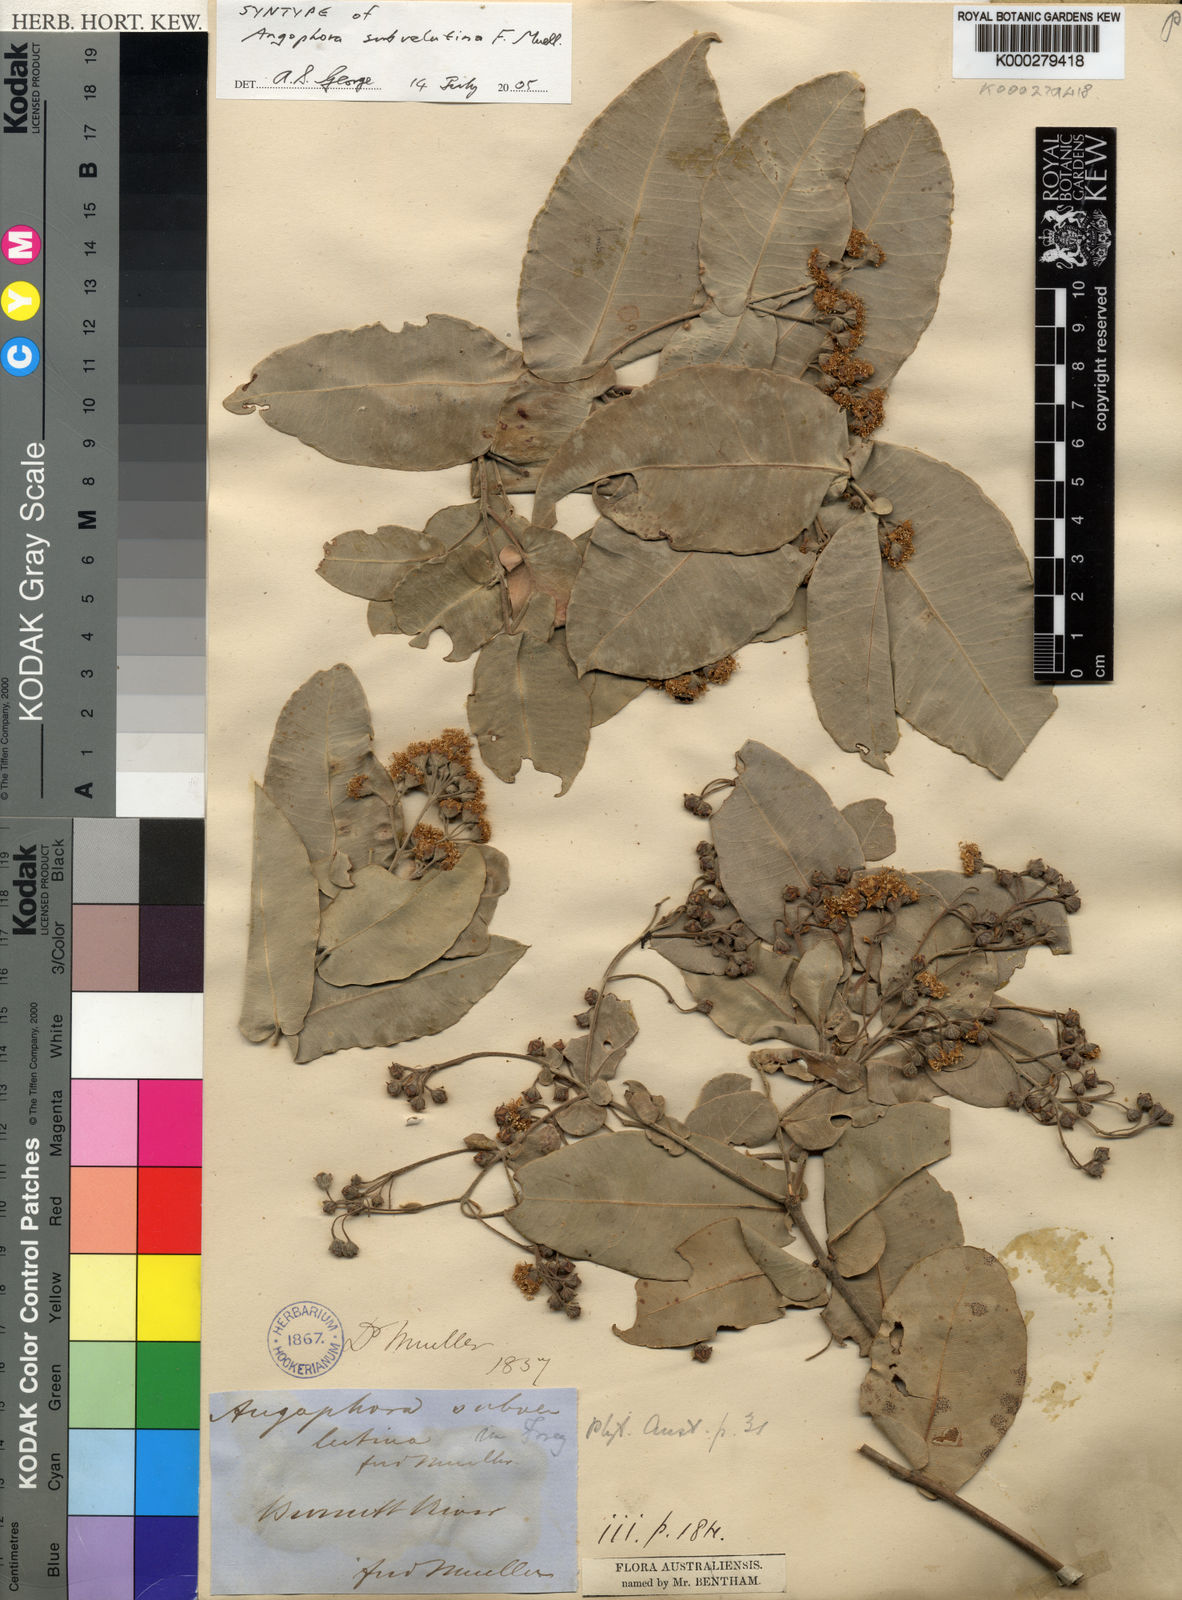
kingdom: Plantae
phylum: Tracheophyta
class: Magnoliopsida
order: Myrtales
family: Myrtaceae
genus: Angophora
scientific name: Angophora subvelutina
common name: Broad-leaved apple
